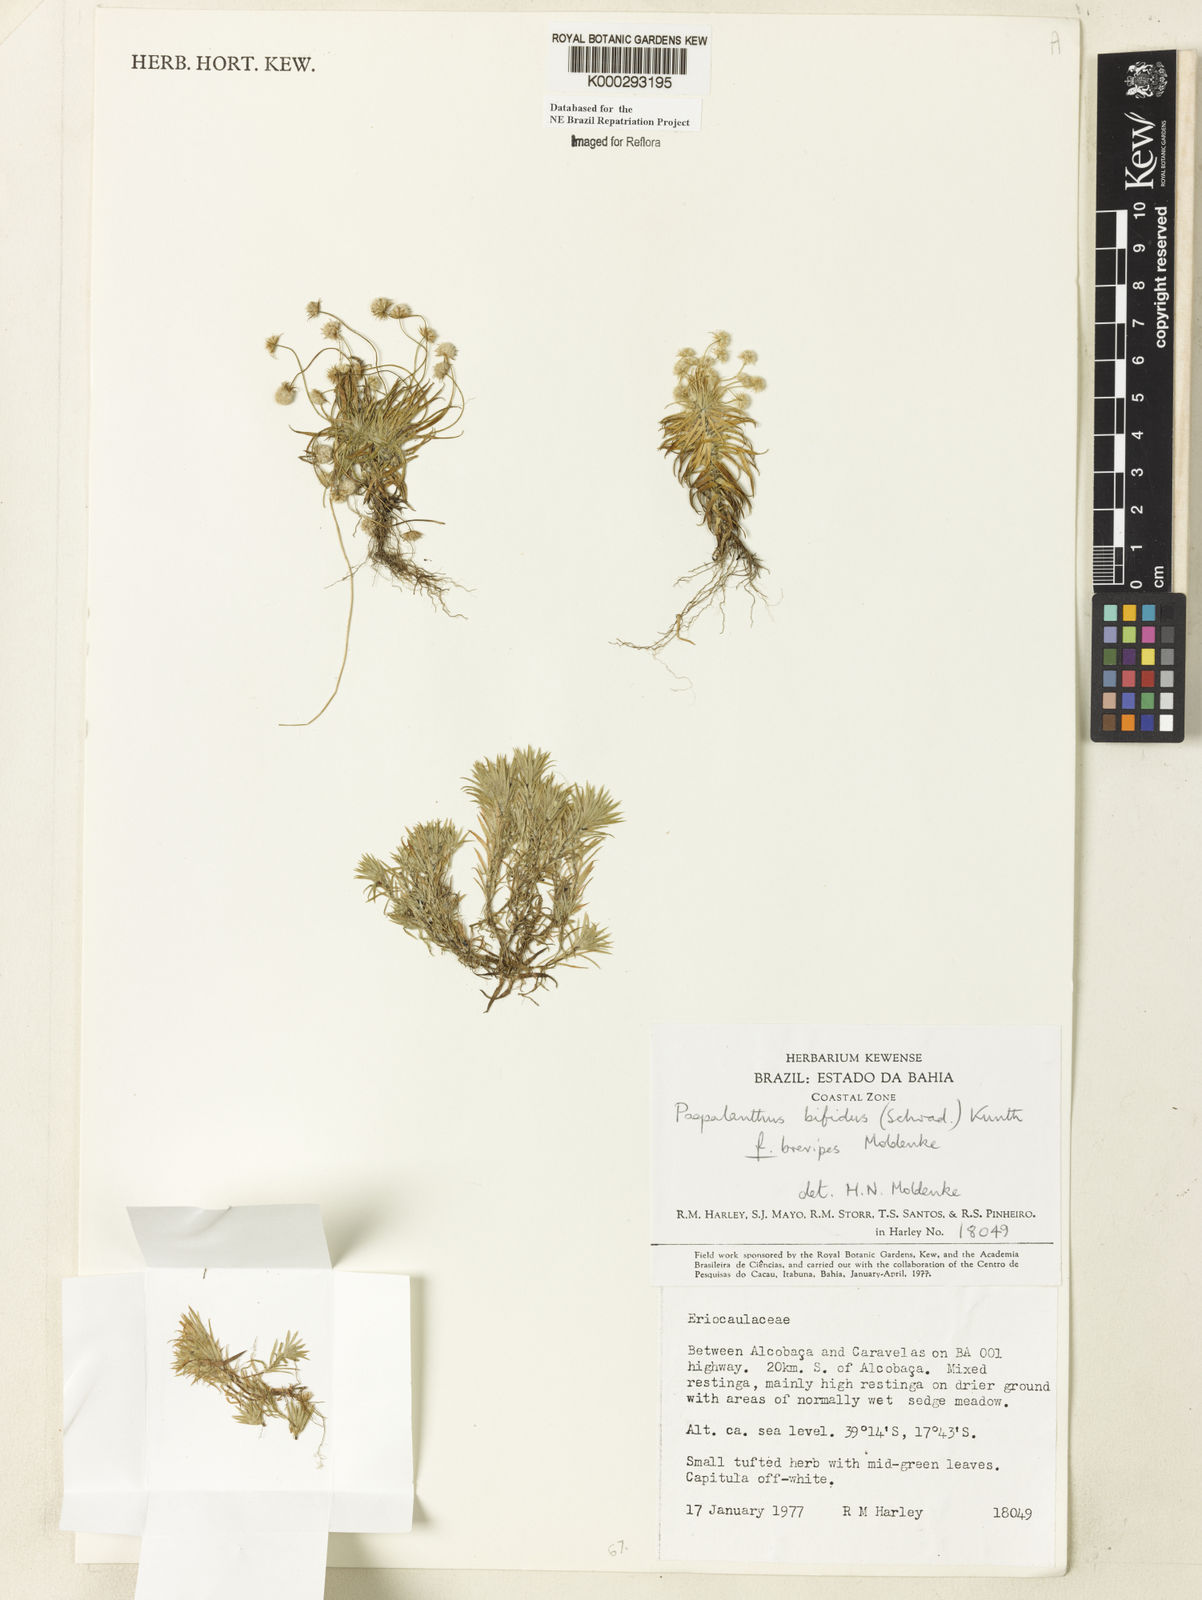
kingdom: Plantae
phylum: Tracheophyta
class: Liliopsida
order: Poales
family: Eriocaulaceae
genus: Paepalanthus
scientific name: Paepalanthus bifidus
